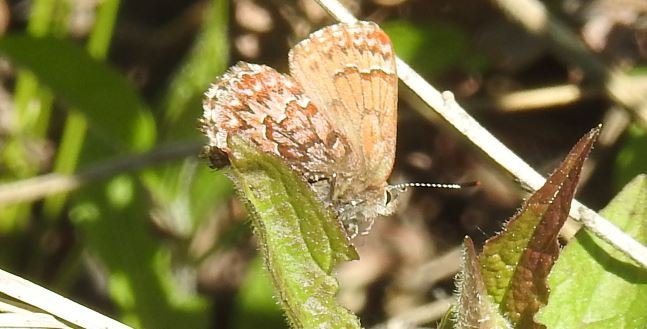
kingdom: Animalia
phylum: Arthropoda
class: Insecta
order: Lepidoptera
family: Lycaenidae
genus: Incisalia
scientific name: Incisalia eryphon
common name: Western Pine Elfin
